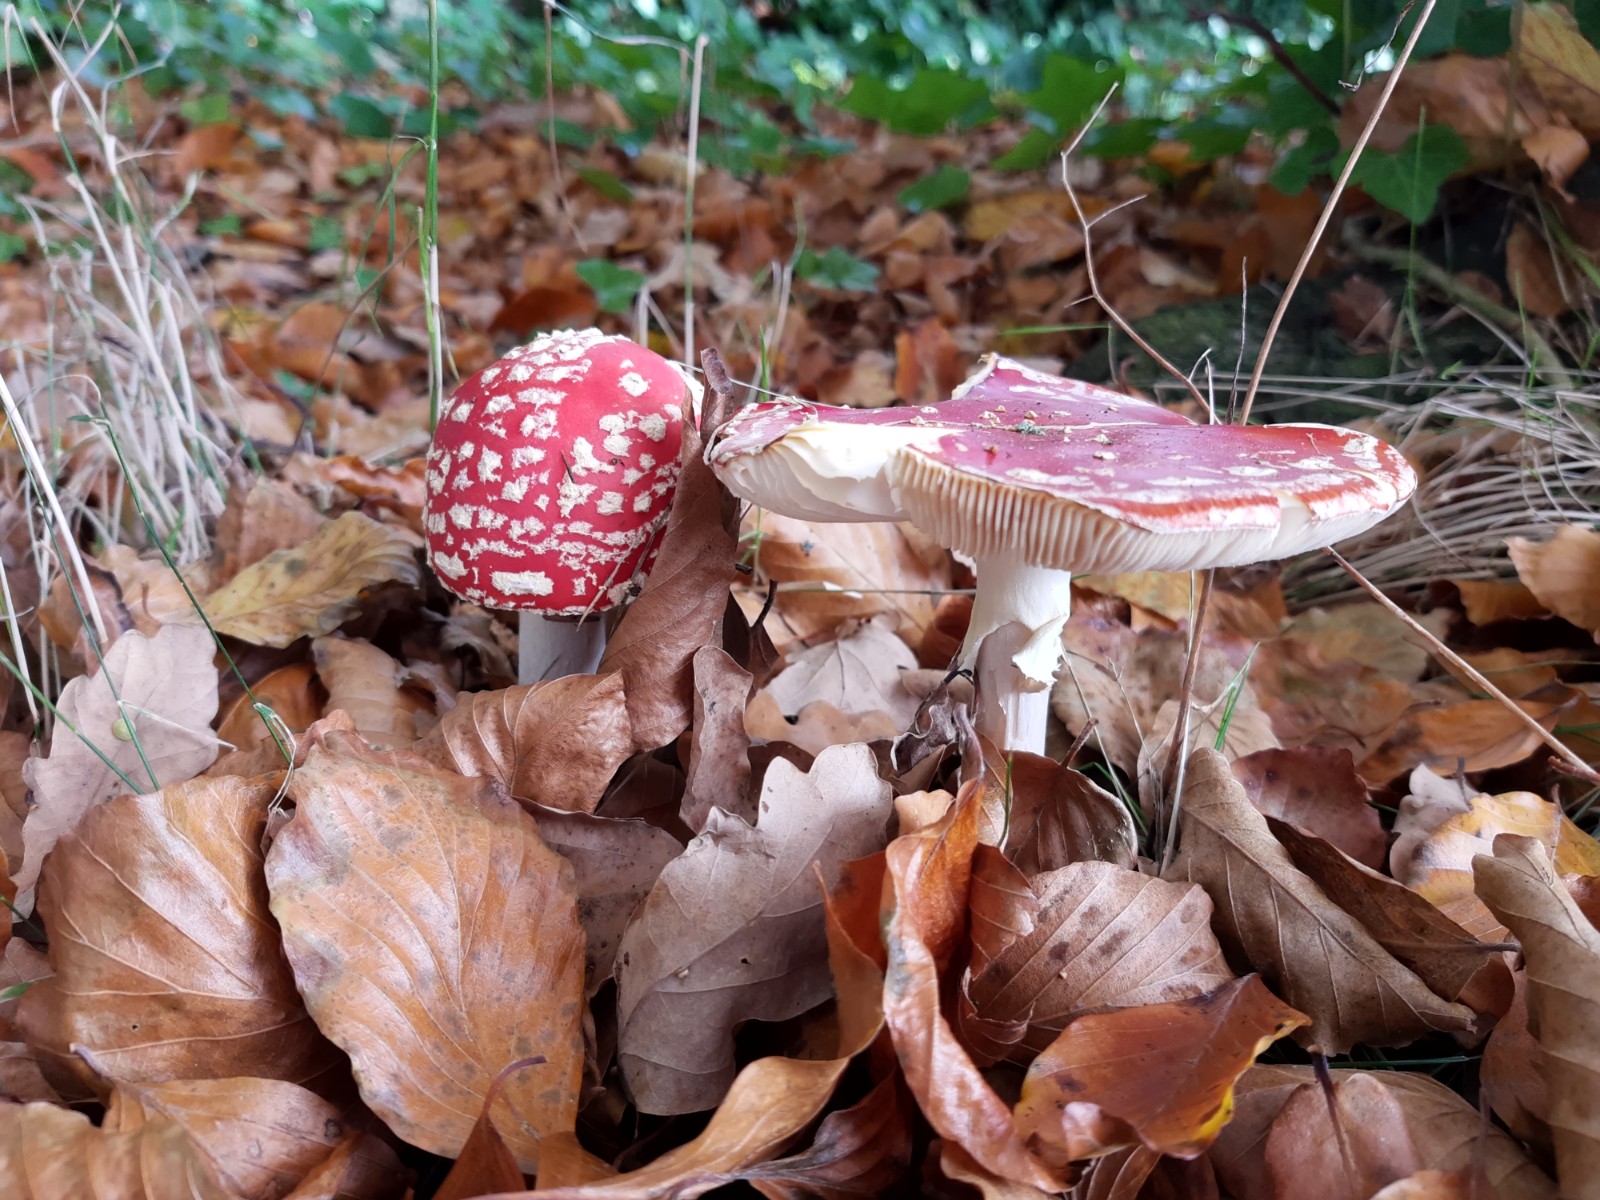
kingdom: Fungi
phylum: Basidiomycota
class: Agaricomycetes
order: Agaricales
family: Amanitaceae
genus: Amanita
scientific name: Amanita muscaria
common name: rød fluesvamp
